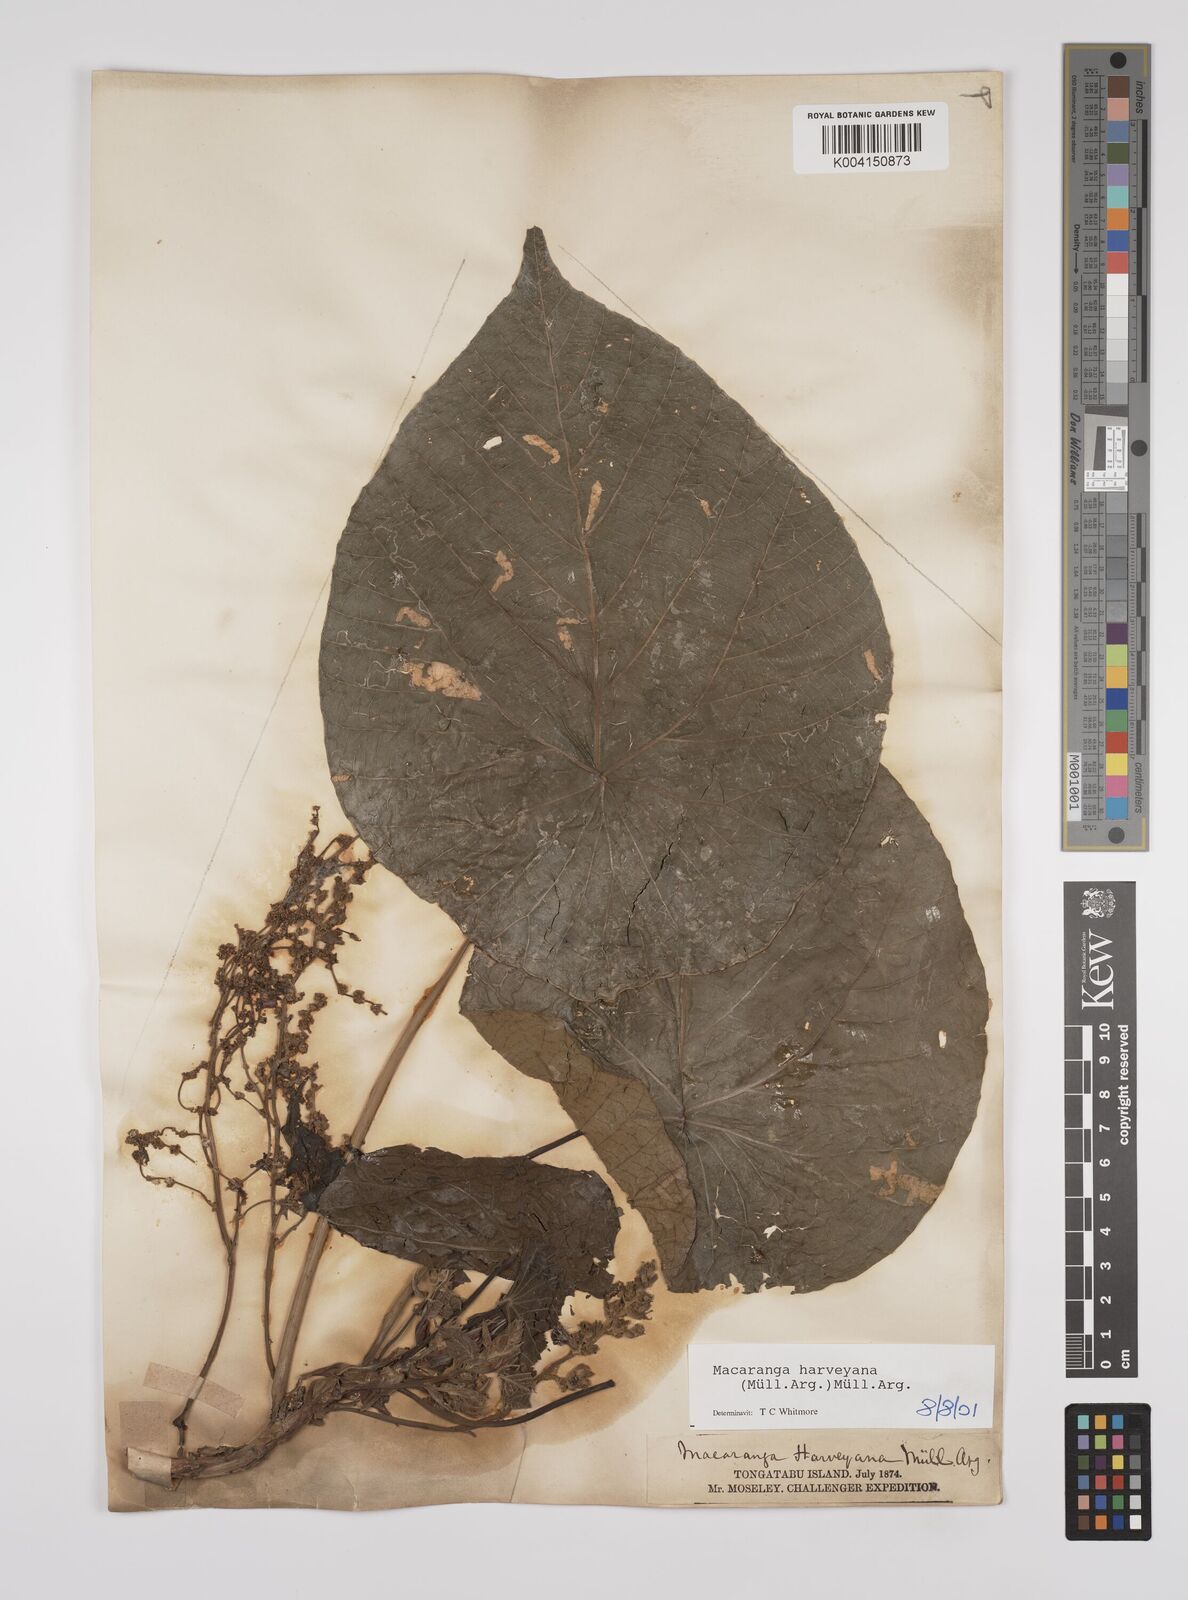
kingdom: Plantae
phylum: Tracheophyta
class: Magnoliopsida
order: Malpighiales
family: Euphorbiaceae
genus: Macaranga
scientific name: Macaranga harveyana
